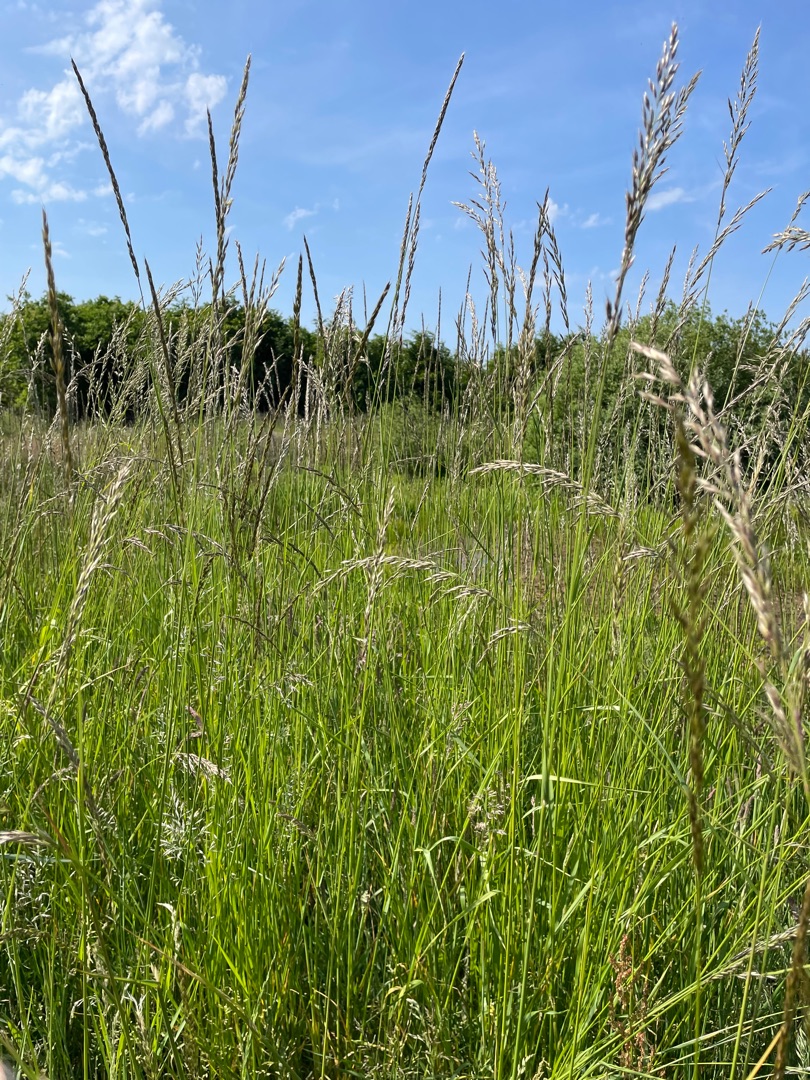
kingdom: Plantae
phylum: Tracheophyta
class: Liliopsida
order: Poales
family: Poaceae
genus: Arrhenatherum
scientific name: Arrhenatherum elatius
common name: Draphavre
